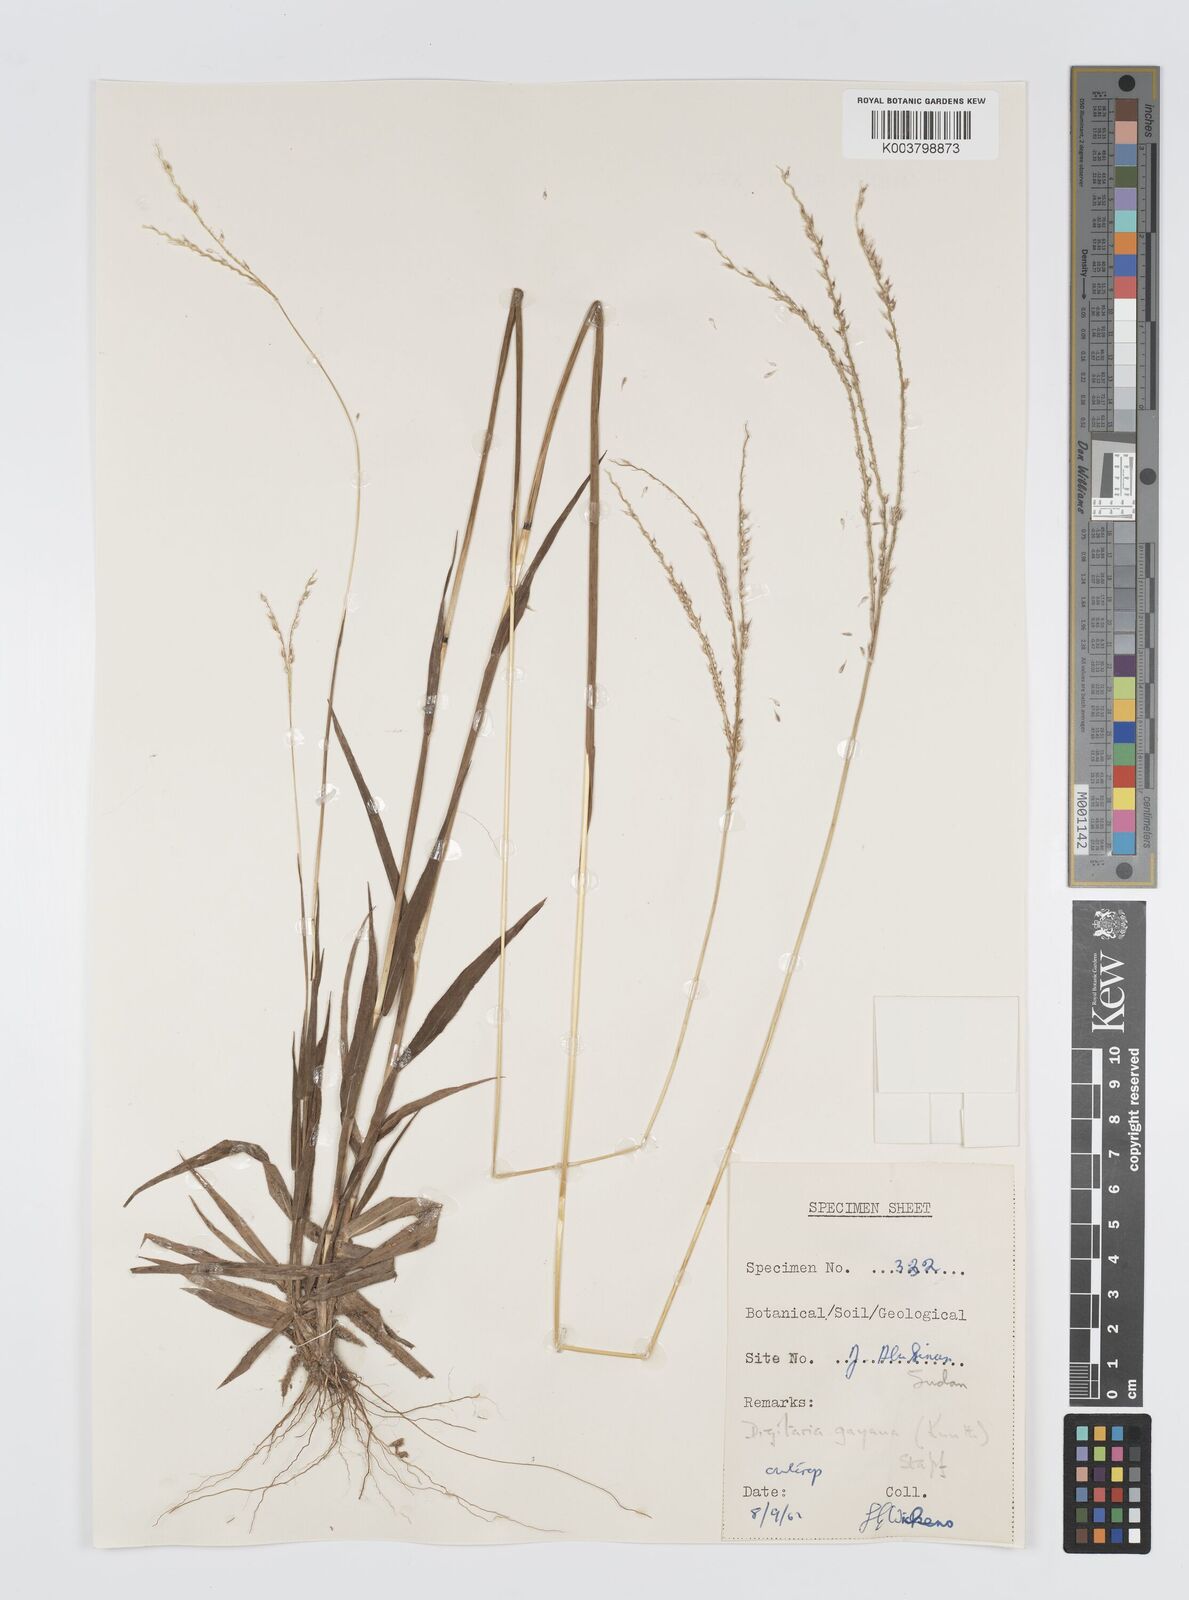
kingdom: Plantae
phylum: Tracheophyta
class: Liliopsida
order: Poales
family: Poaceae
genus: Digitaria
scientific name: Digitaria gayana
